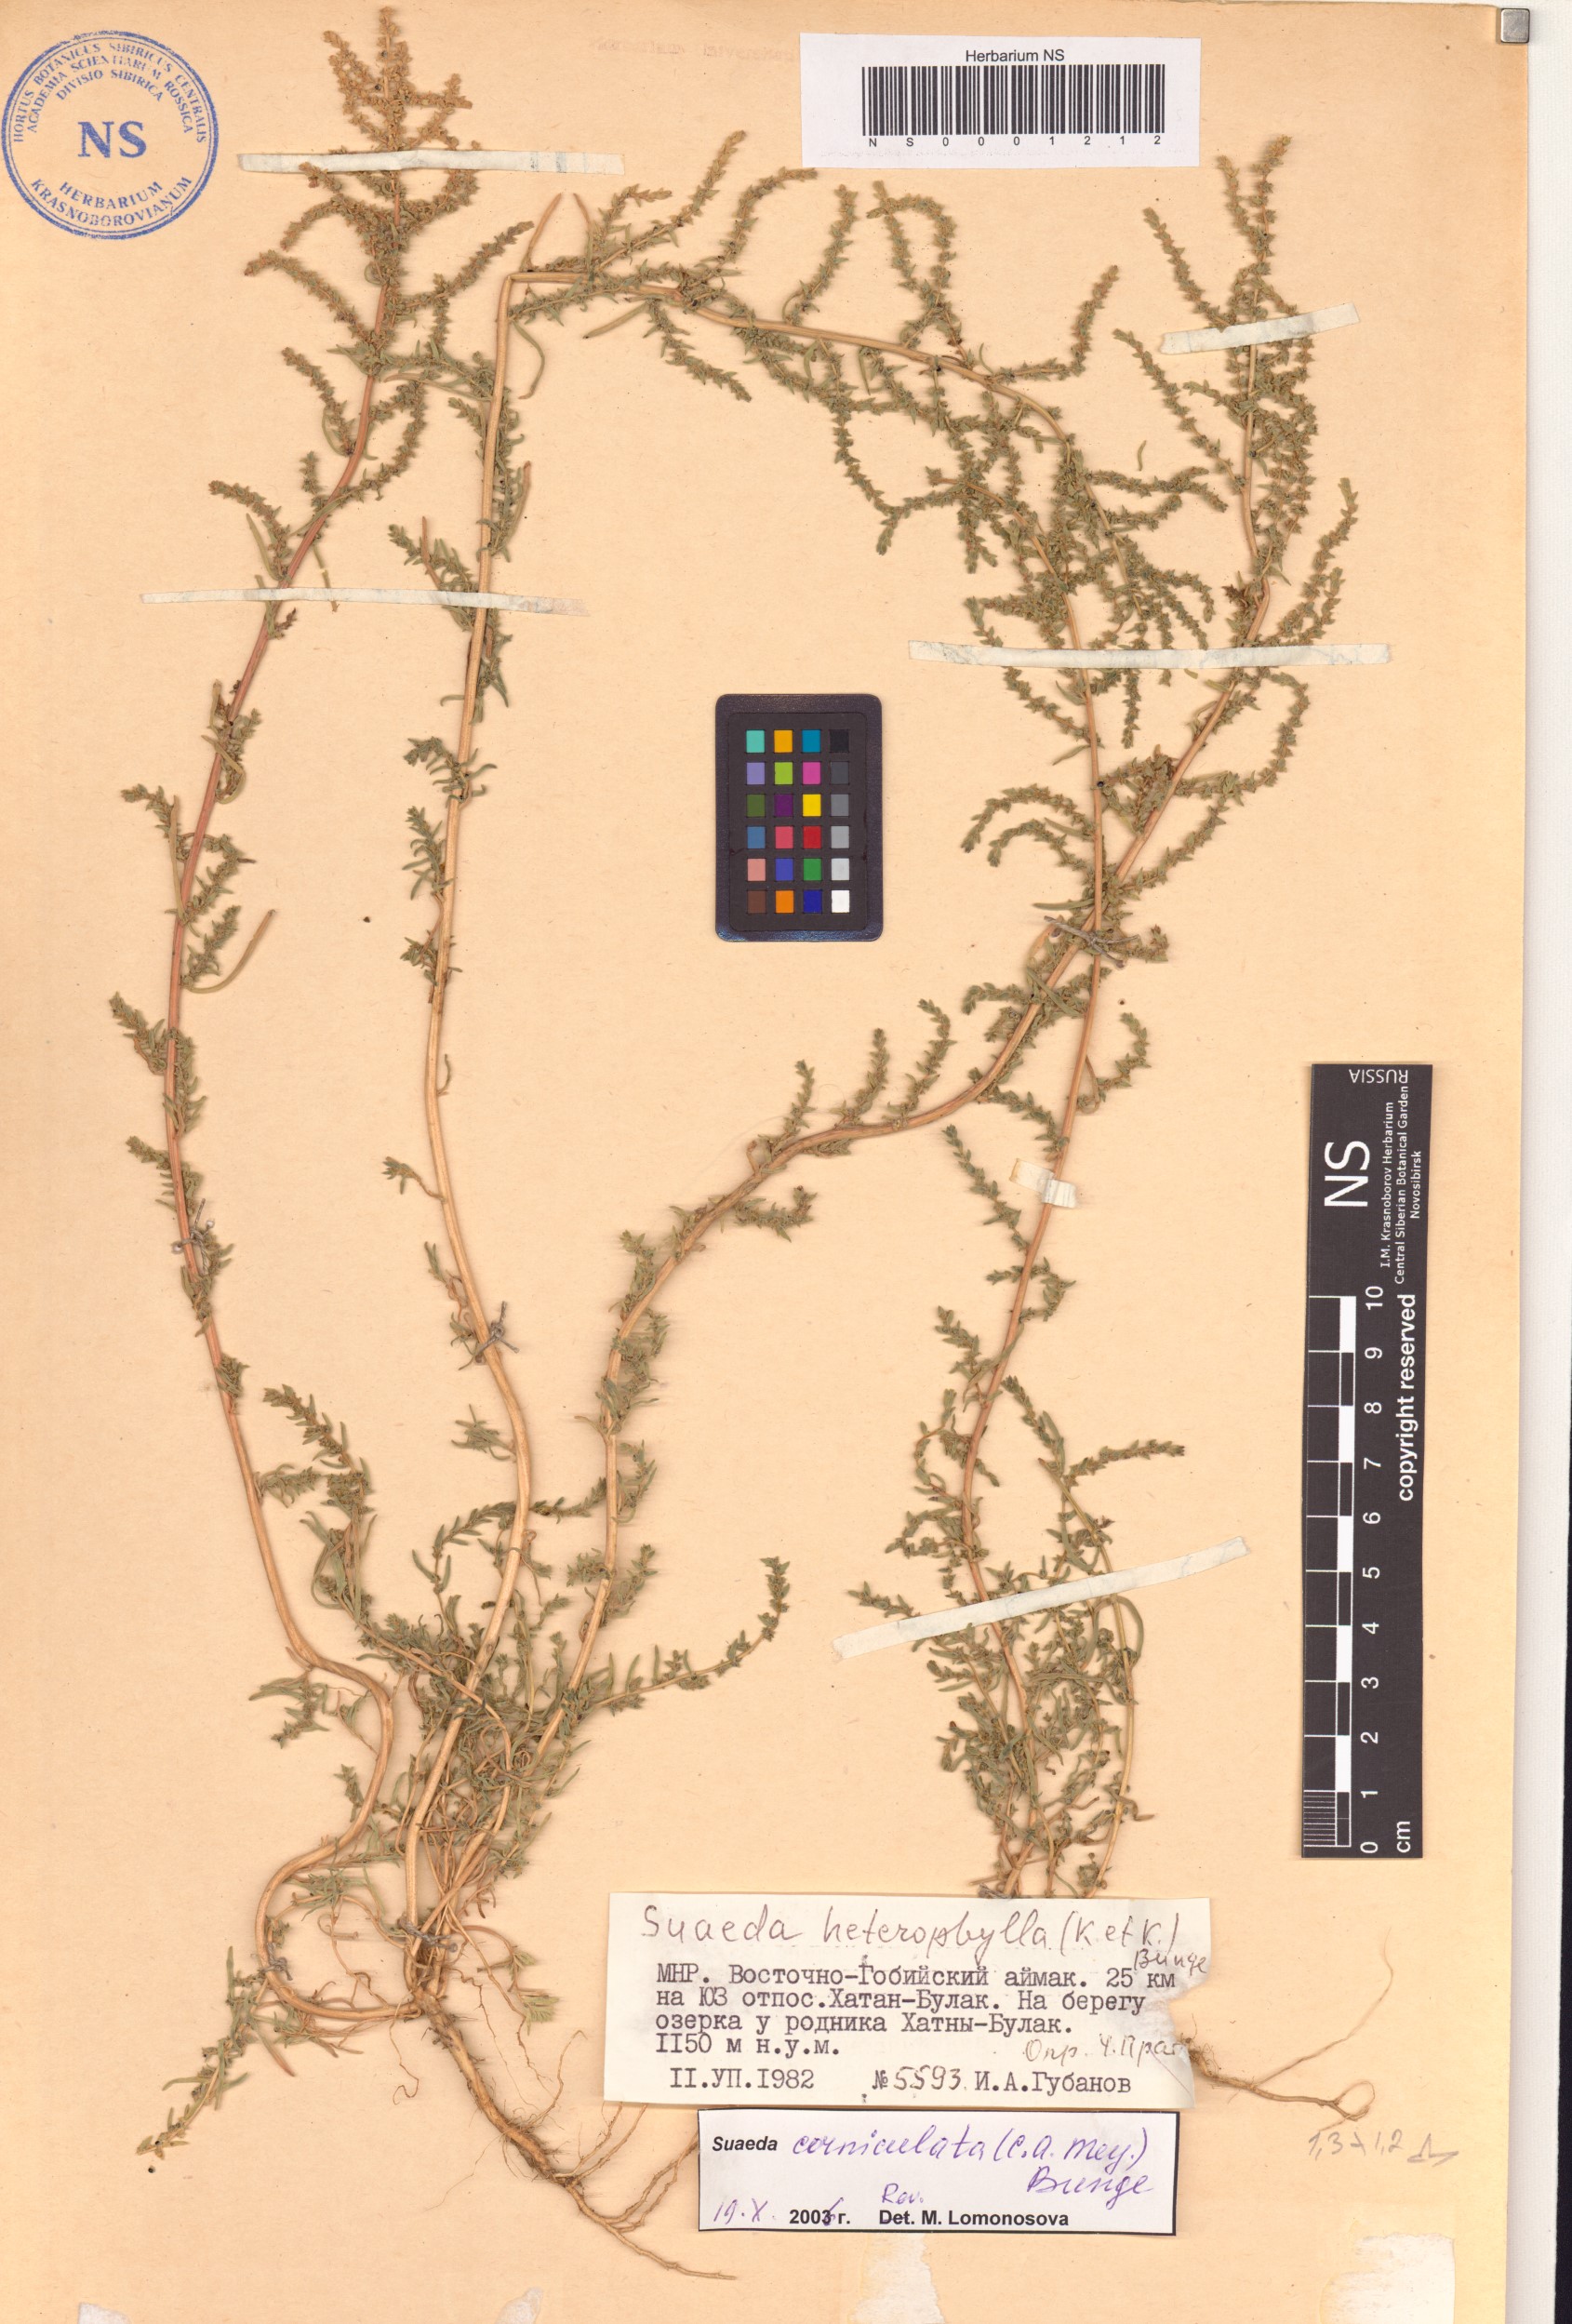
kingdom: Plantae
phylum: Tracheophyta
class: Magnoliopsida
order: Caryophyllales
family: Amaranthaceae
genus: Suaeda
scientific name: Suaeda corniculata
